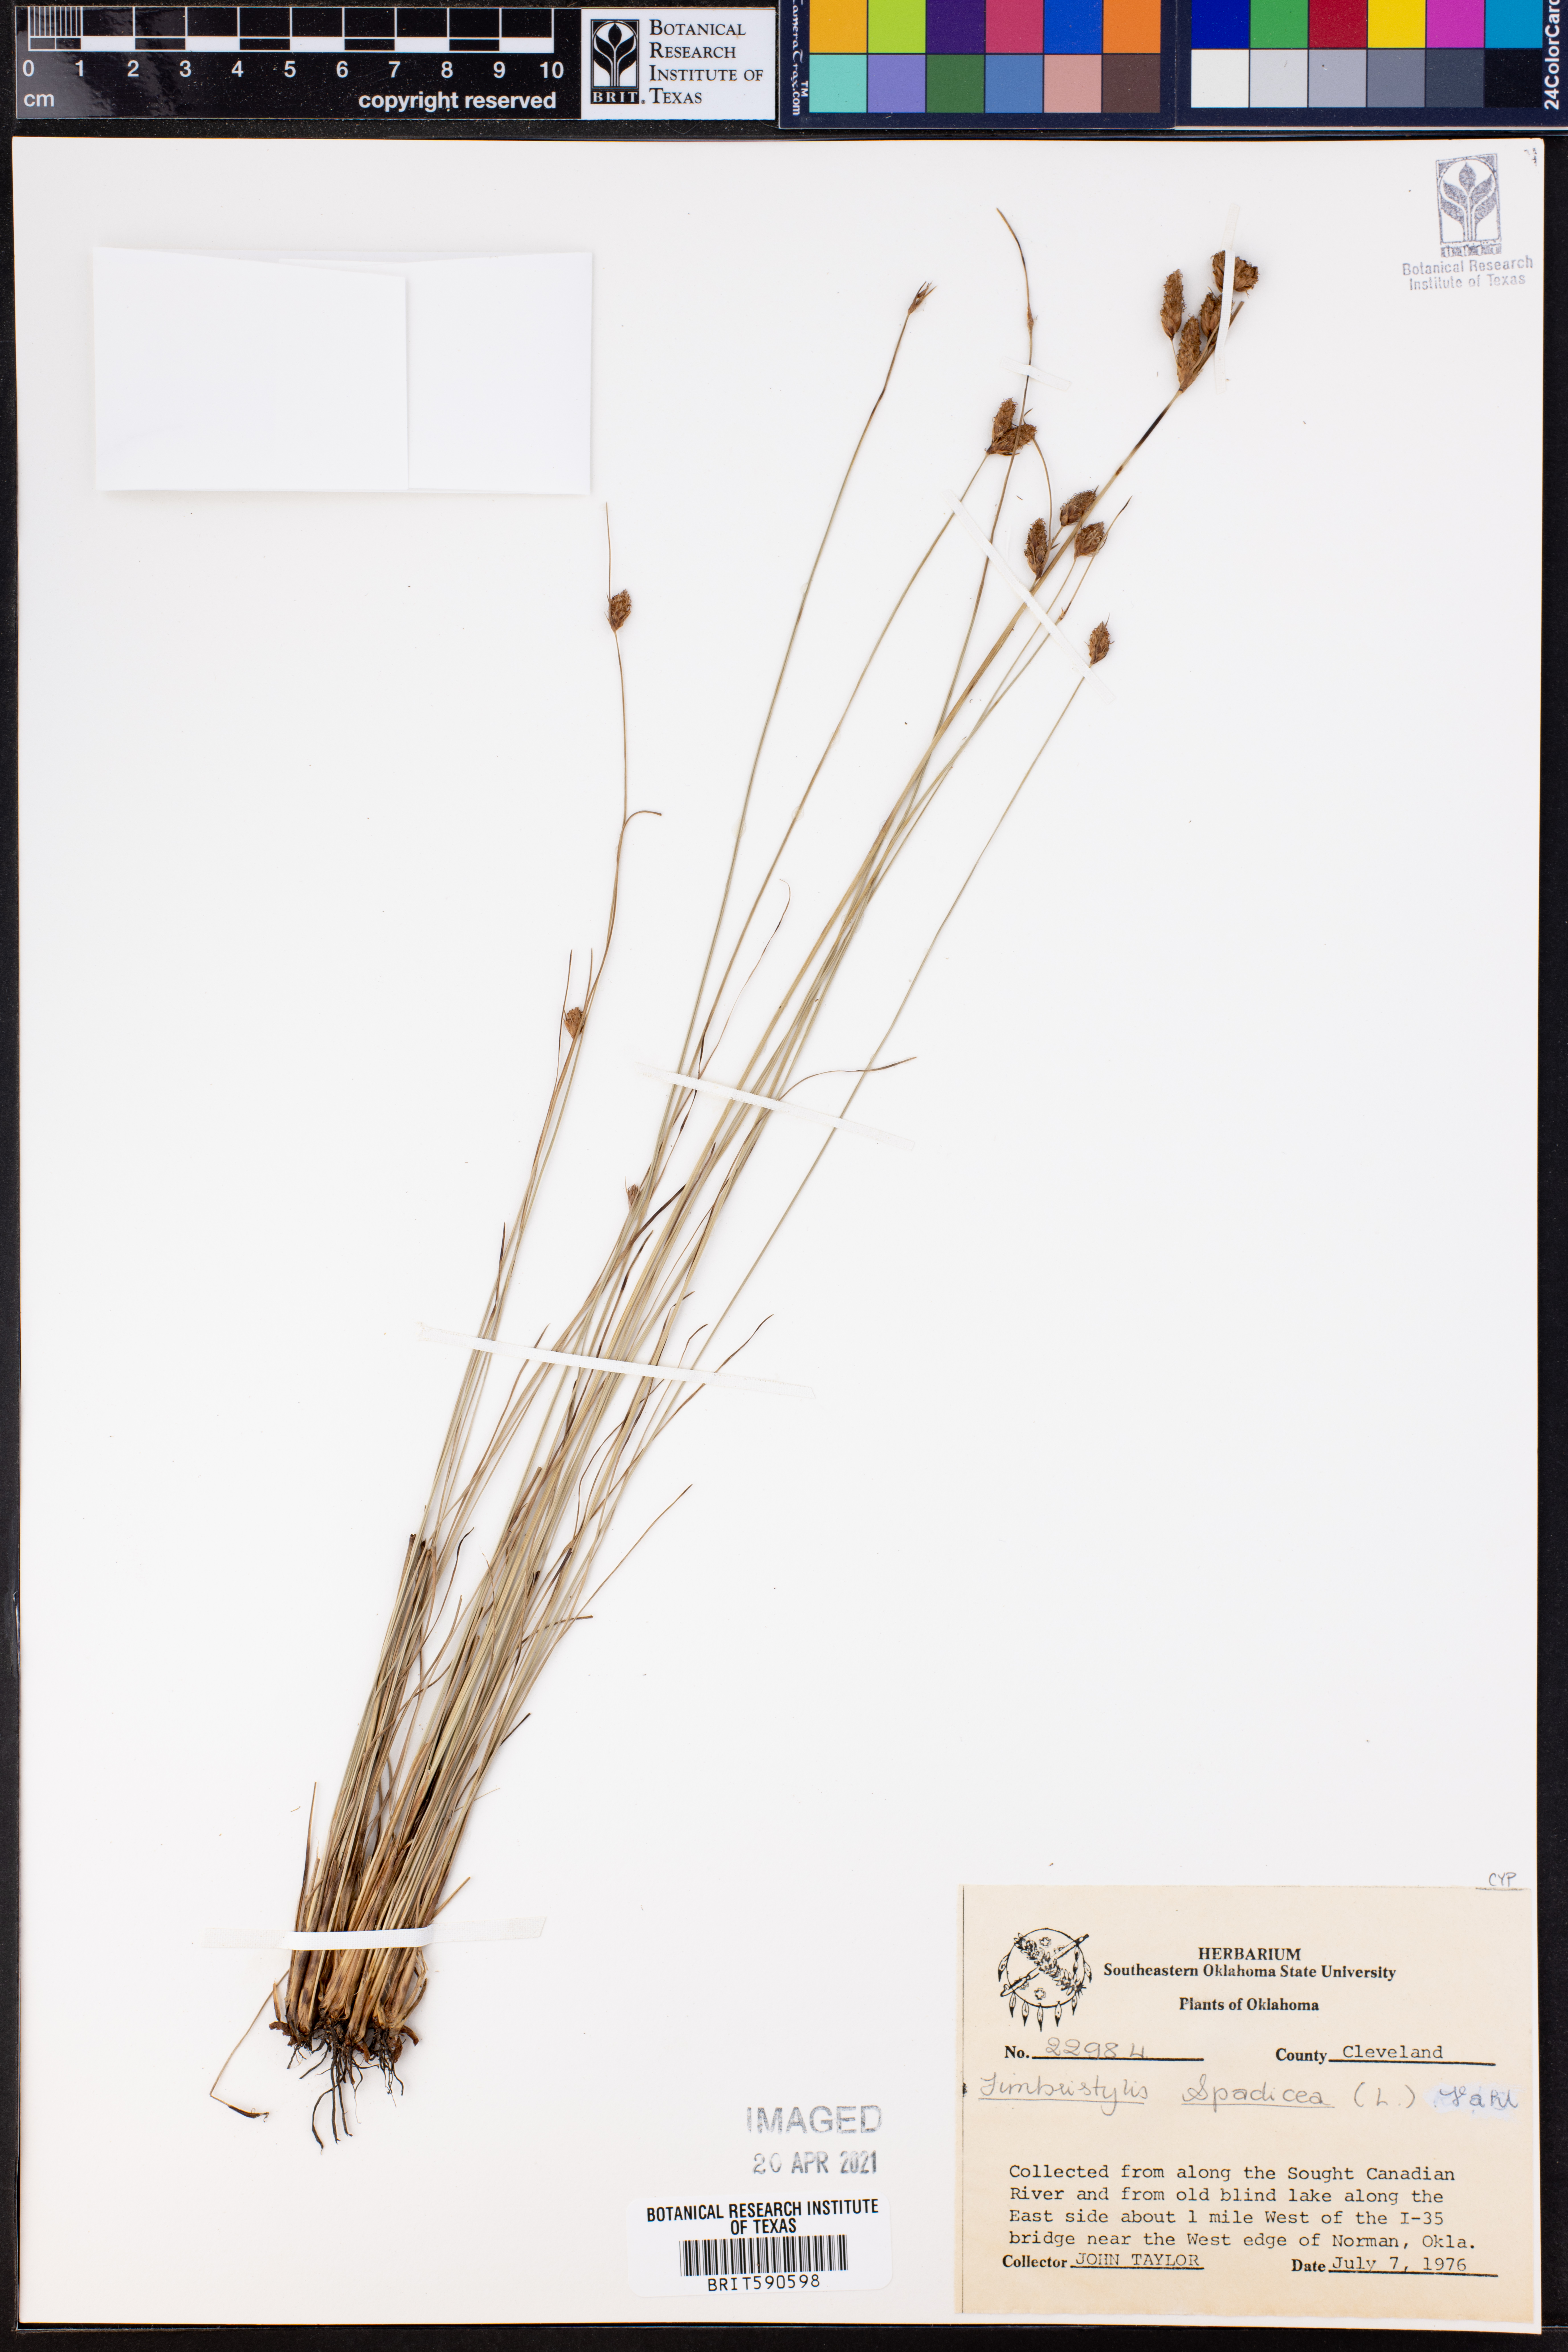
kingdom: Plantae
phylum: Tracheophyta
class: Liliopsida
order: Poales
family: Cyperaceae
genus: Fimbristylis
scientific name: Fimbristylis spadicea
